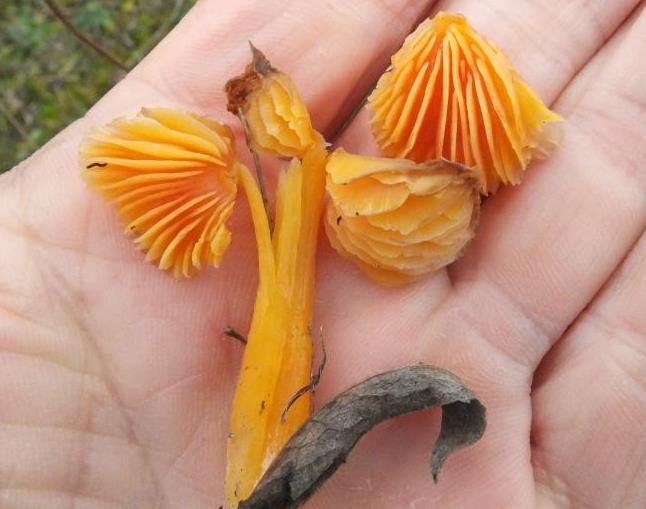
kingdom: Fungi
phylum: Basidiomycota
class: Agaricomycetes
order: Agaricales
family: Hygrophoraceae
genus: Hygrocybe
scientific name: Hygrocybe acutoconica
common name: spidspuklet vokshat
